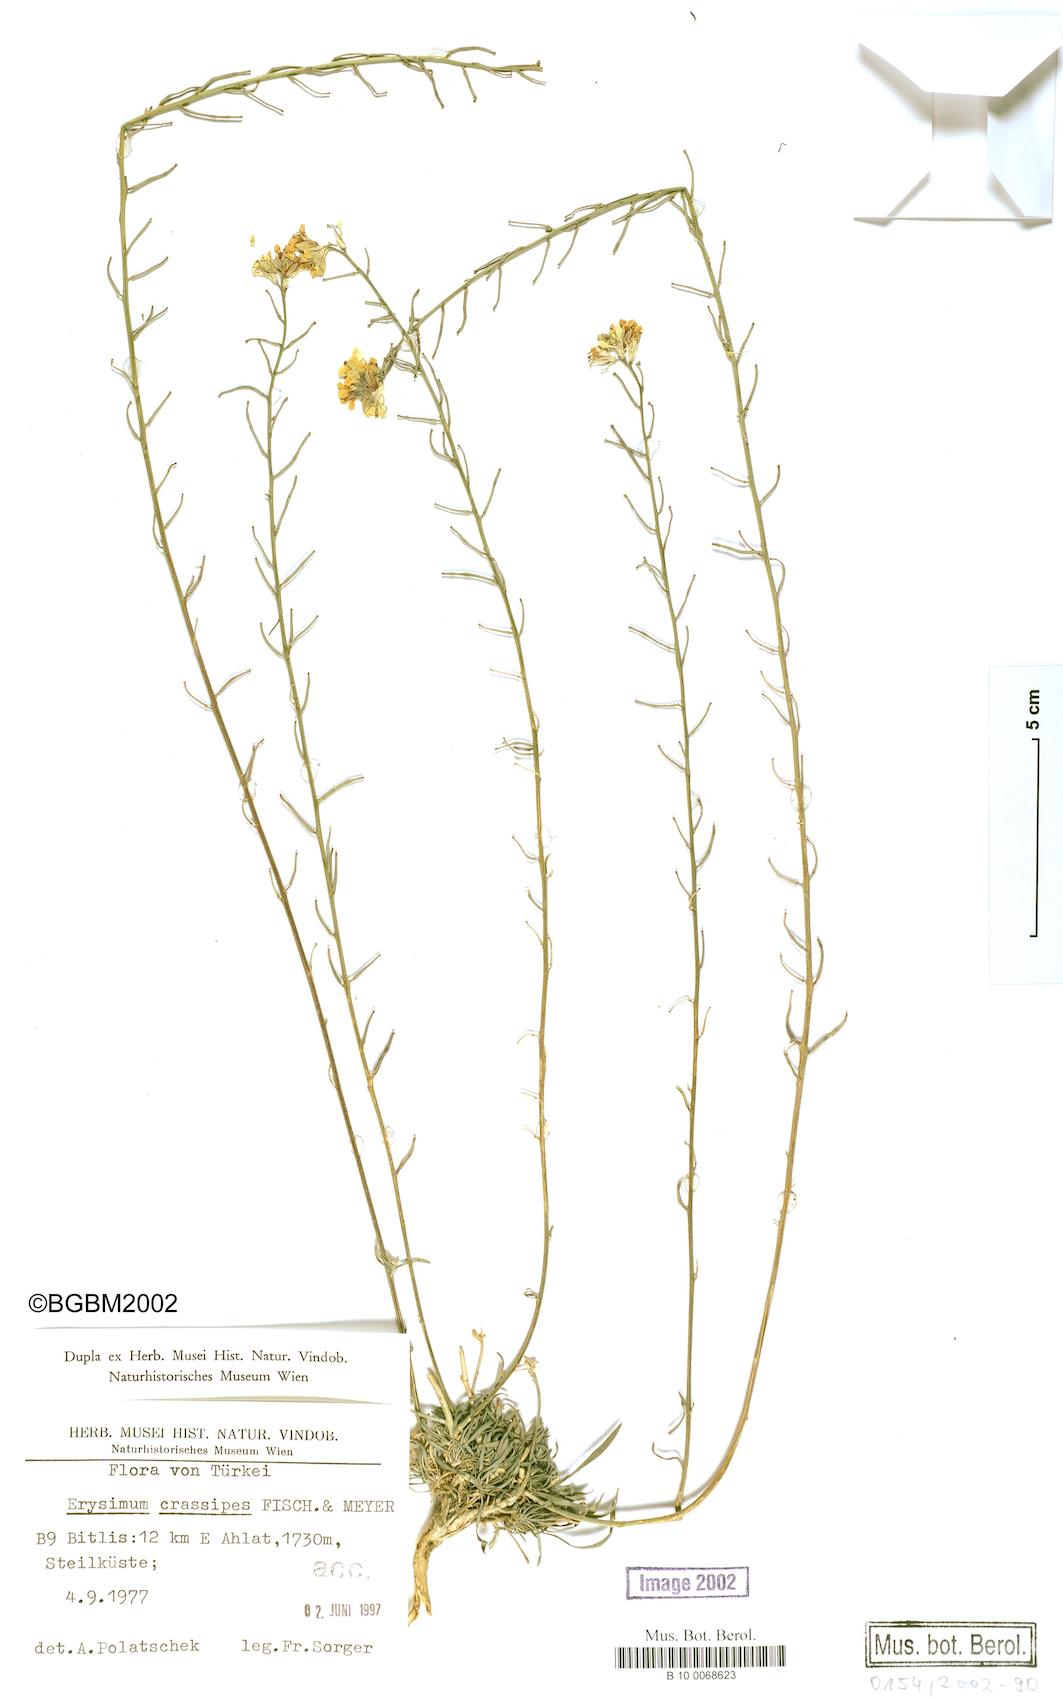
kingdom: Plantae
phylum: Tracheophyta
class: Magnoliopsida
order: Brassicales
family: Brassicaceae
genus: Erysimum
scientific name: Erysimum crassipes
